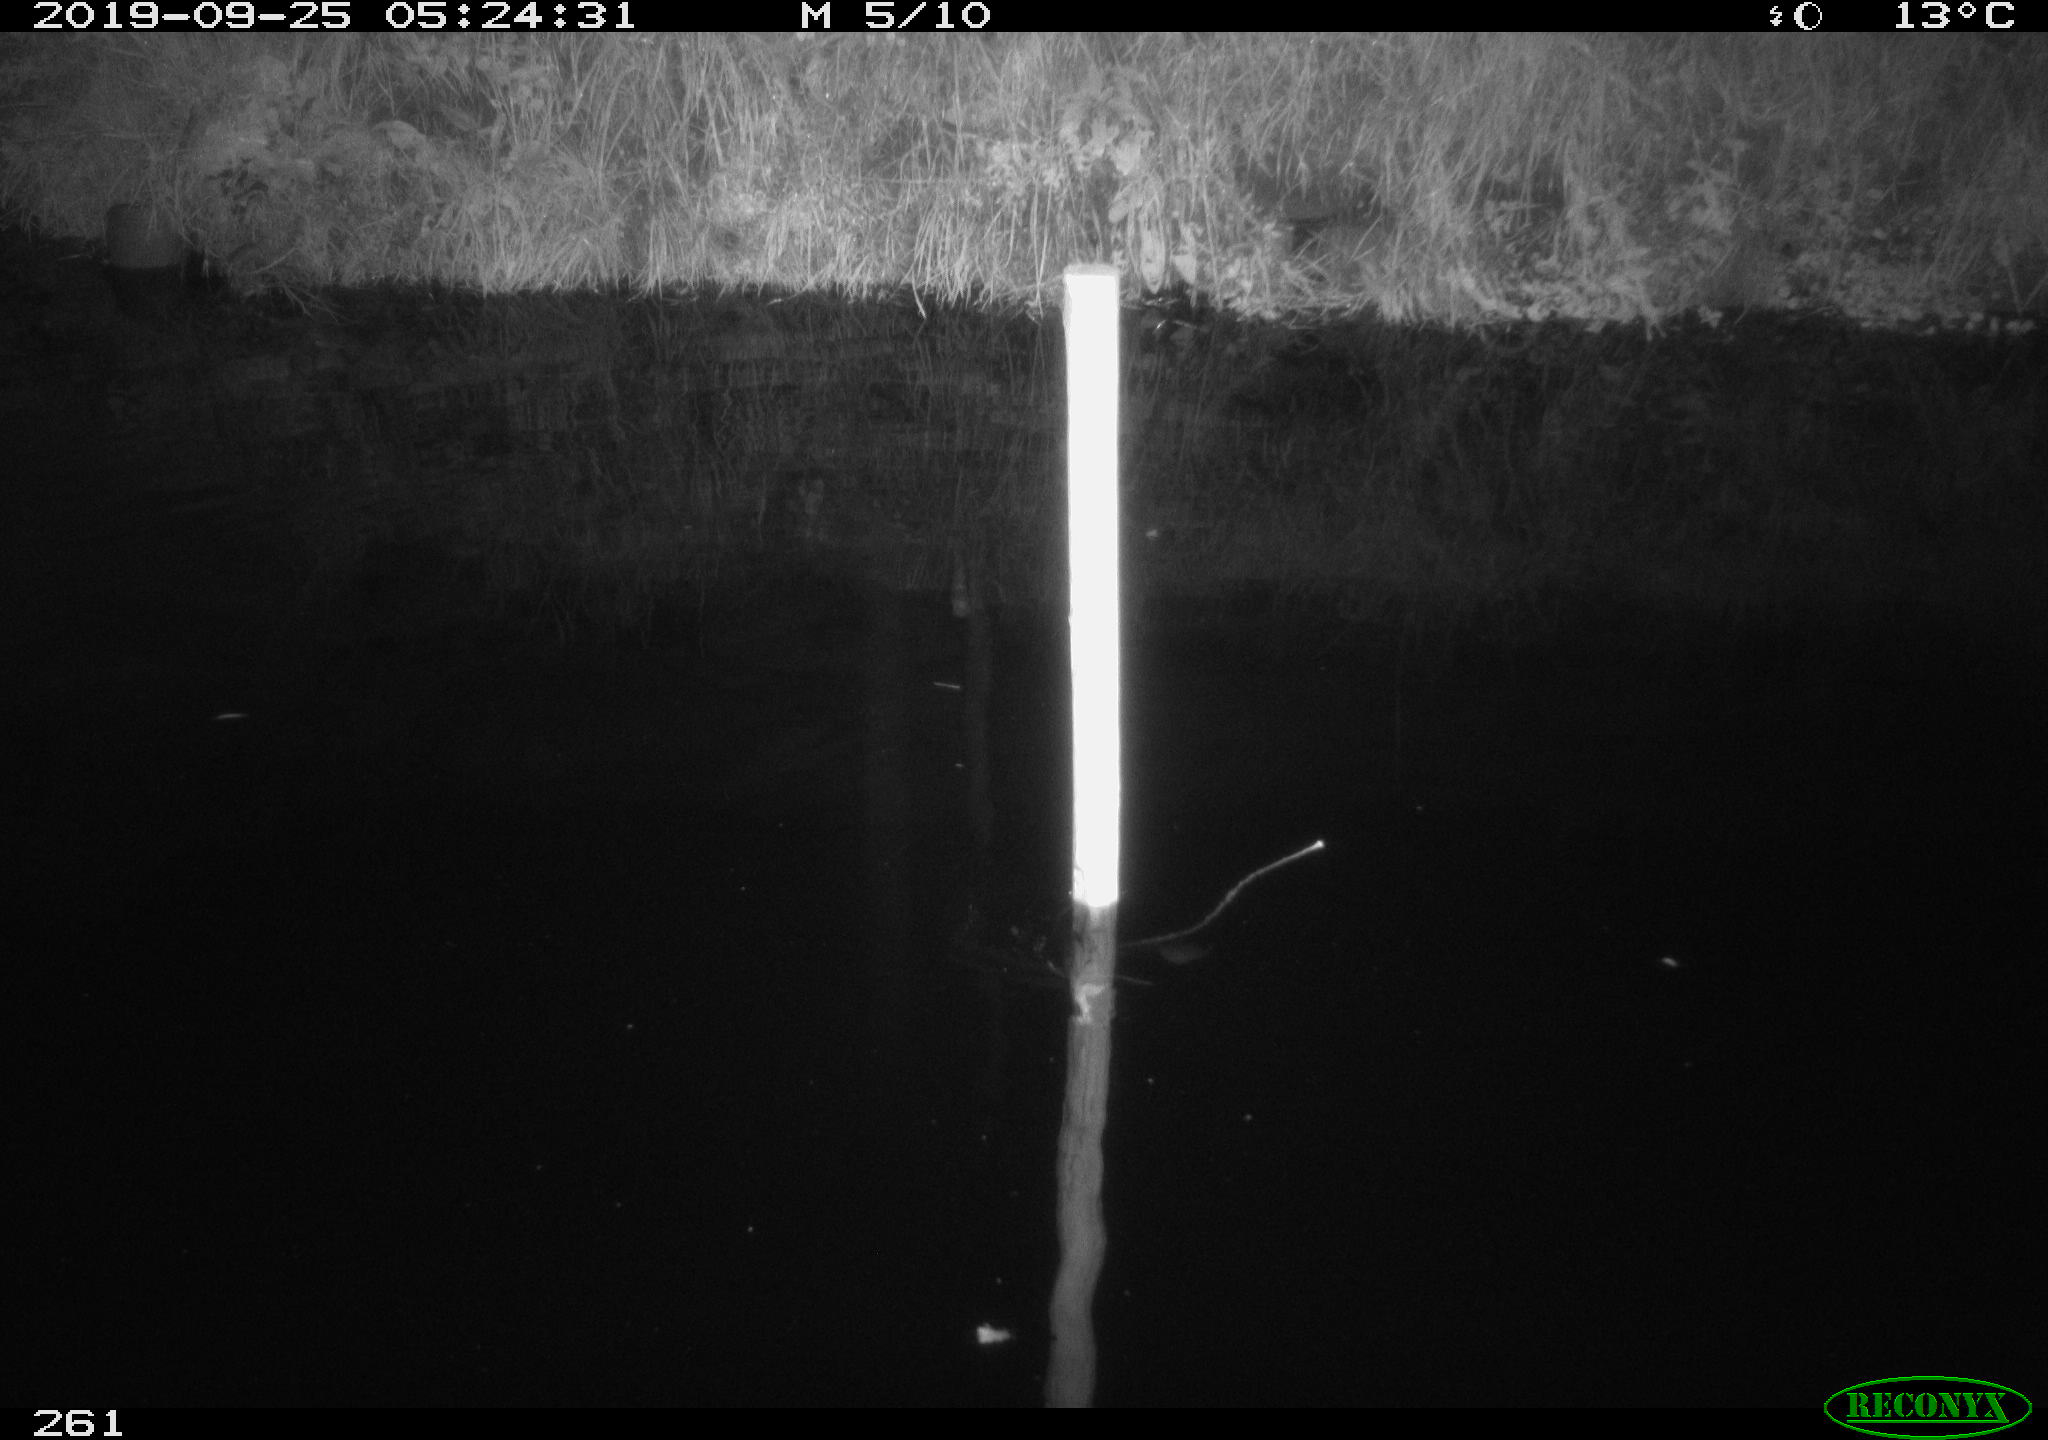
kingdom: Animalia
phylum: Chordata
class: Aves
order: Anseriformes
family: Anatidae
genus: Anas
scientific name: Anas platyrhynchos
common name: Mallard
